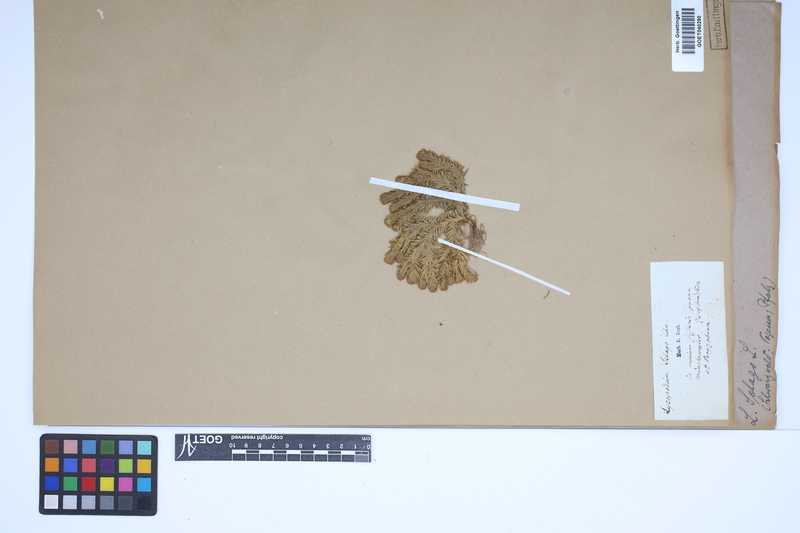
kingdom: Plantae
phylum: Tracheophyta
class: Lycopodiopsida
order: Lycopodiales
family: Lycopodiaceae
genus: Huperzia
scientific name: Huperzia selago
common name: Northern firmoss
